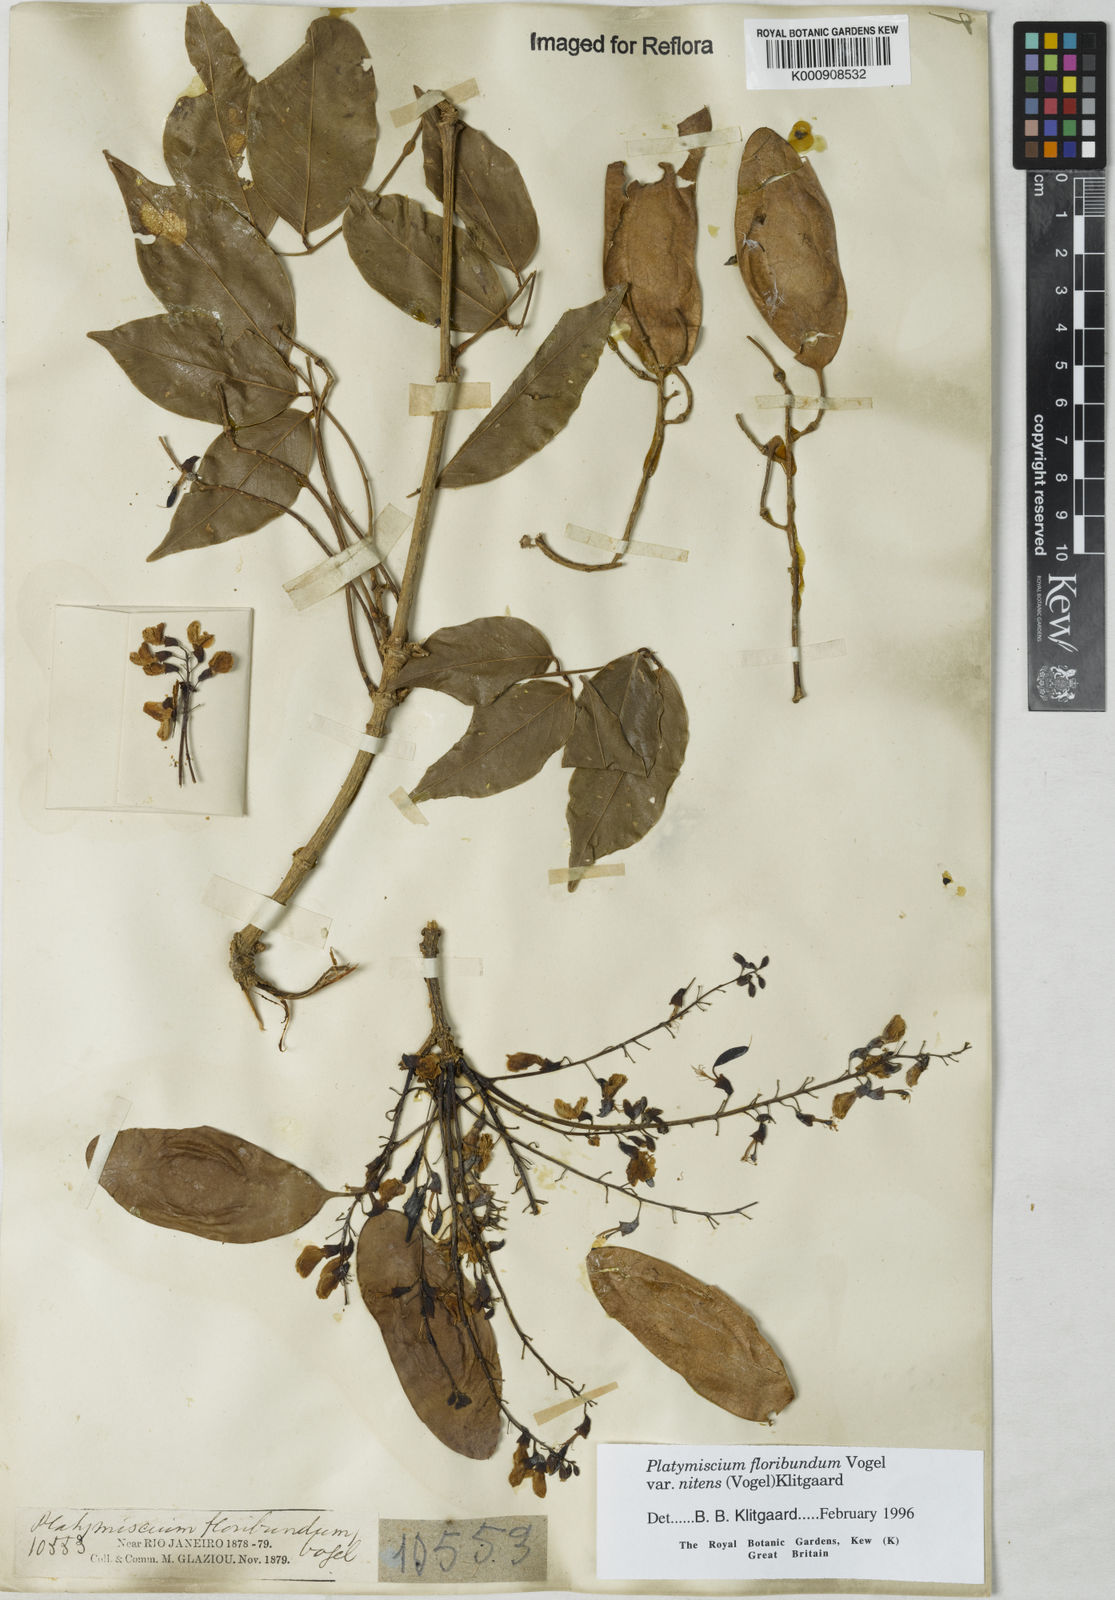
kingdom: Plantae
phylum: Tracheophyta
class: Magnoliopsida
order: Fabales
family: Fabaceae
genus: Platymiscium
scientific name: Platymiscium floribundum
